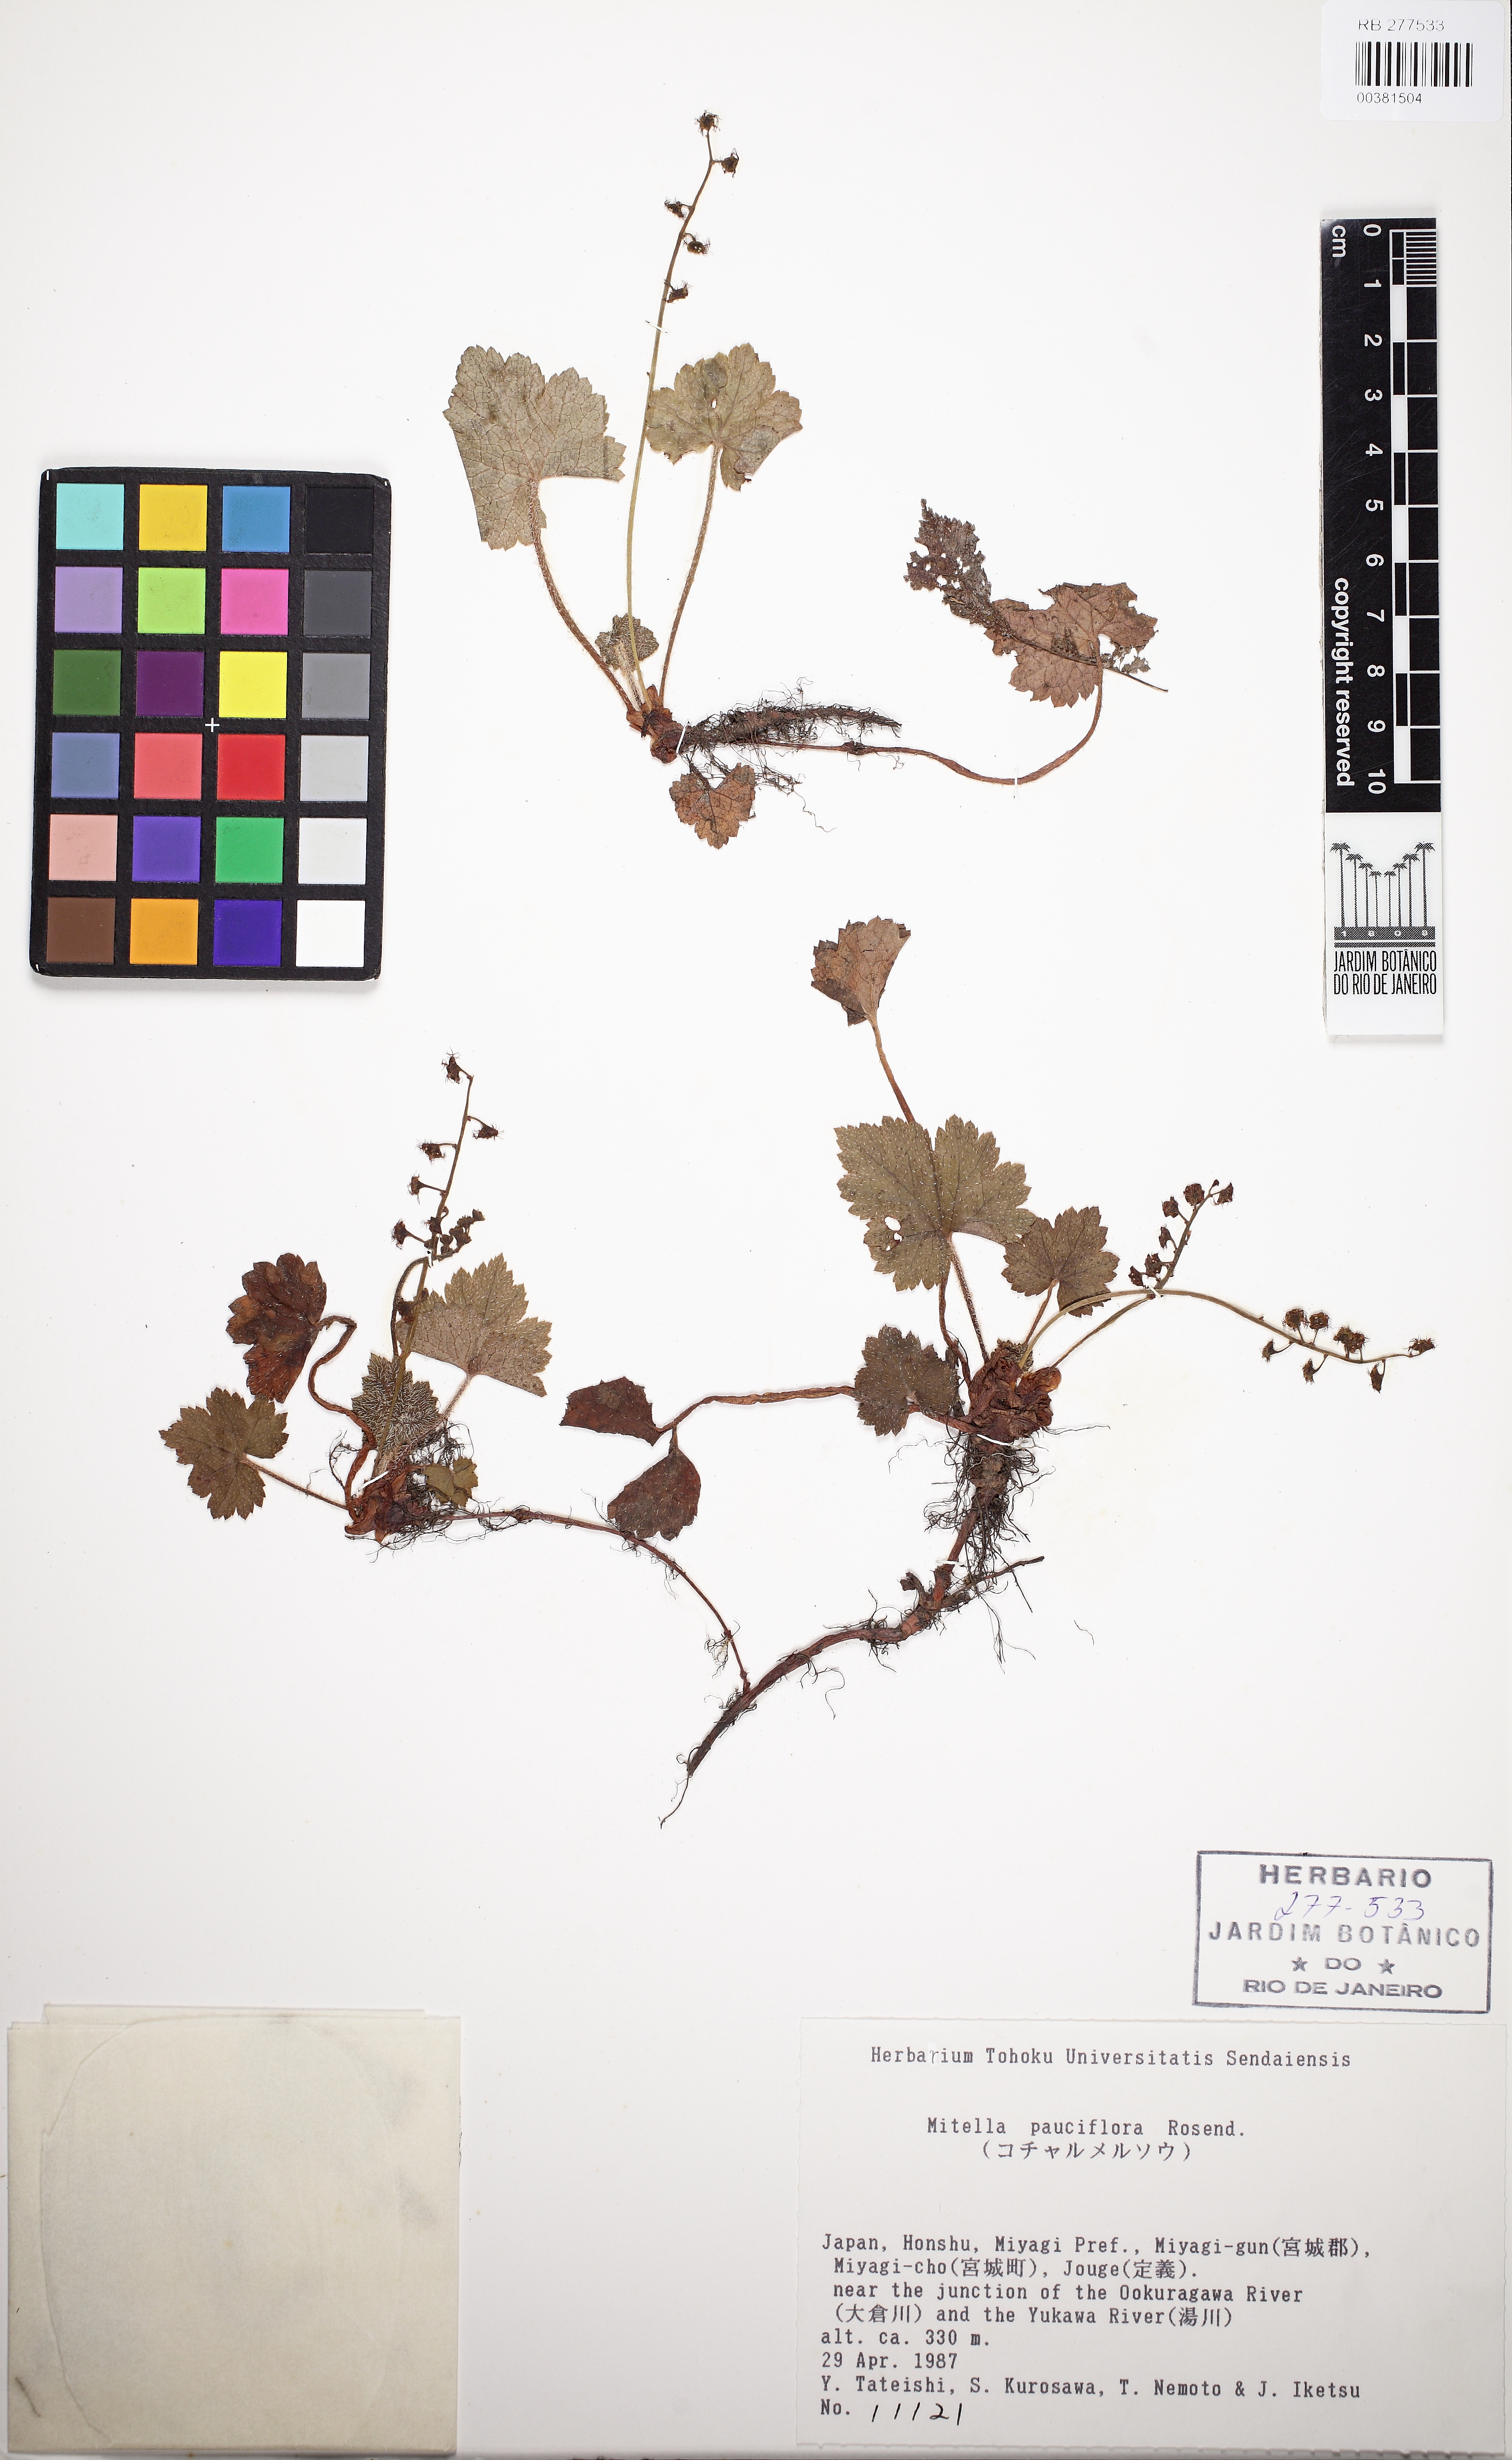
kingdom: Plantae
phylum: Tracheophyta
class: Magnoliopsida
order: Saxifragales
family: Saxifragaceae
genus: Asimitellaria
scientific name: Asimitellaria pauciflora
